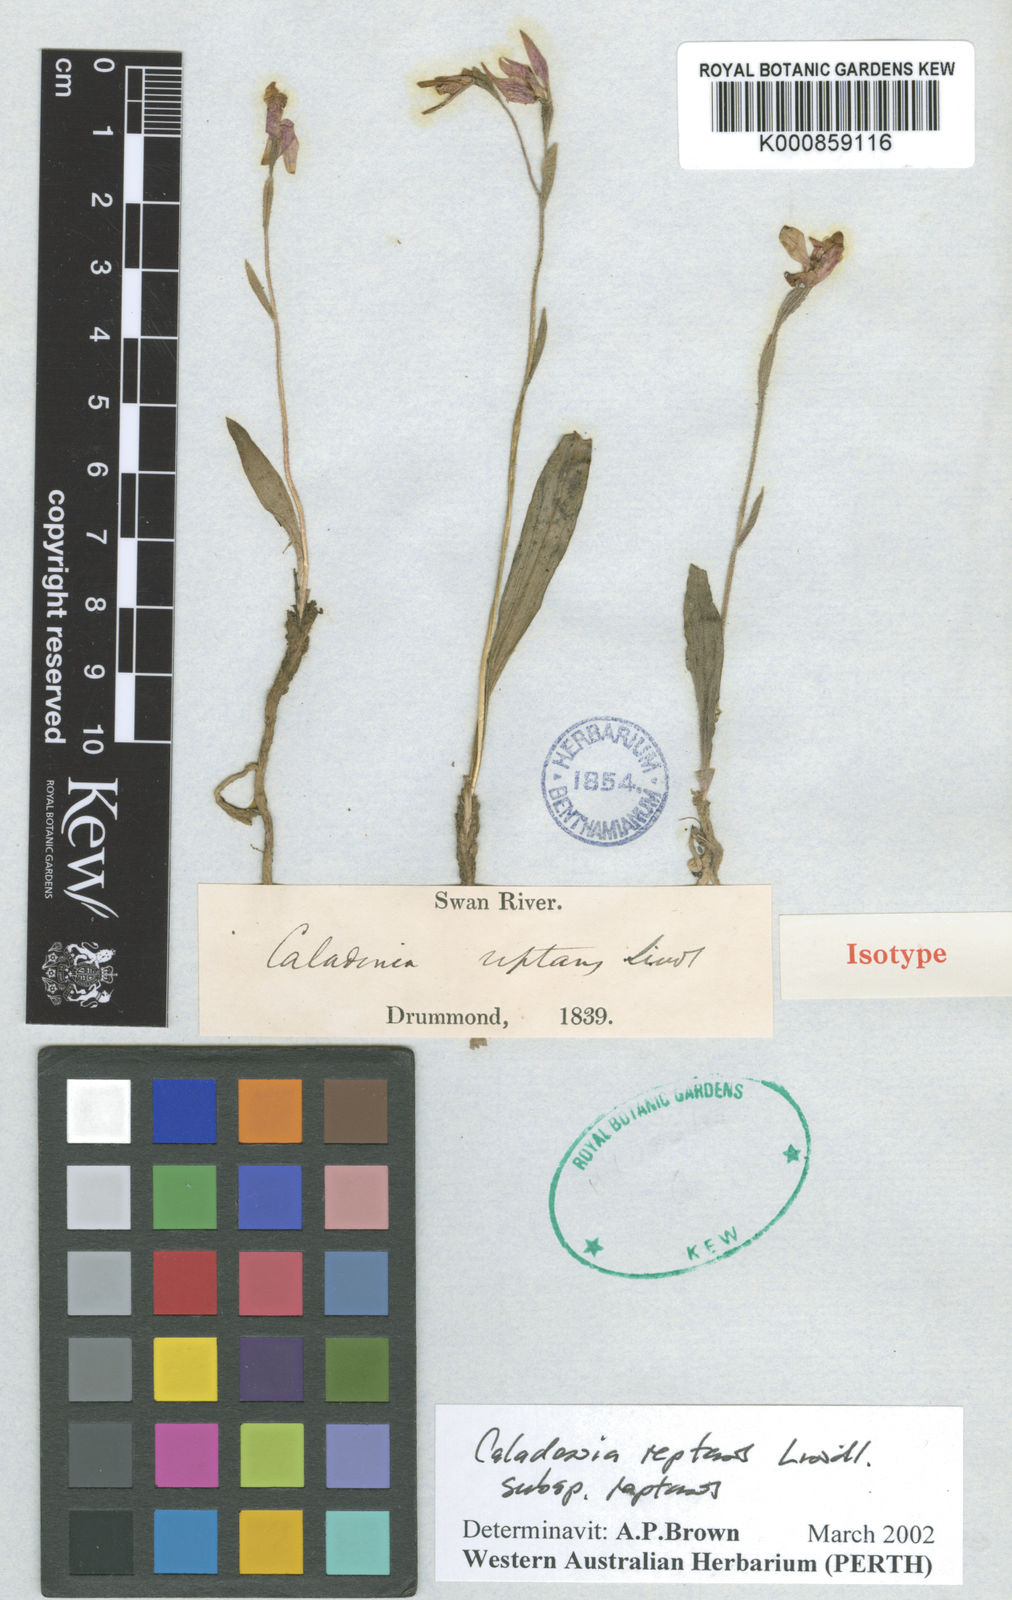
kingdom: Plantae
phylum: Tracheophyta
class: Liliopsida
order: Asparagales
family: Orchidaceae
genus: Caladenia
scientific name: Caladenia reptans
